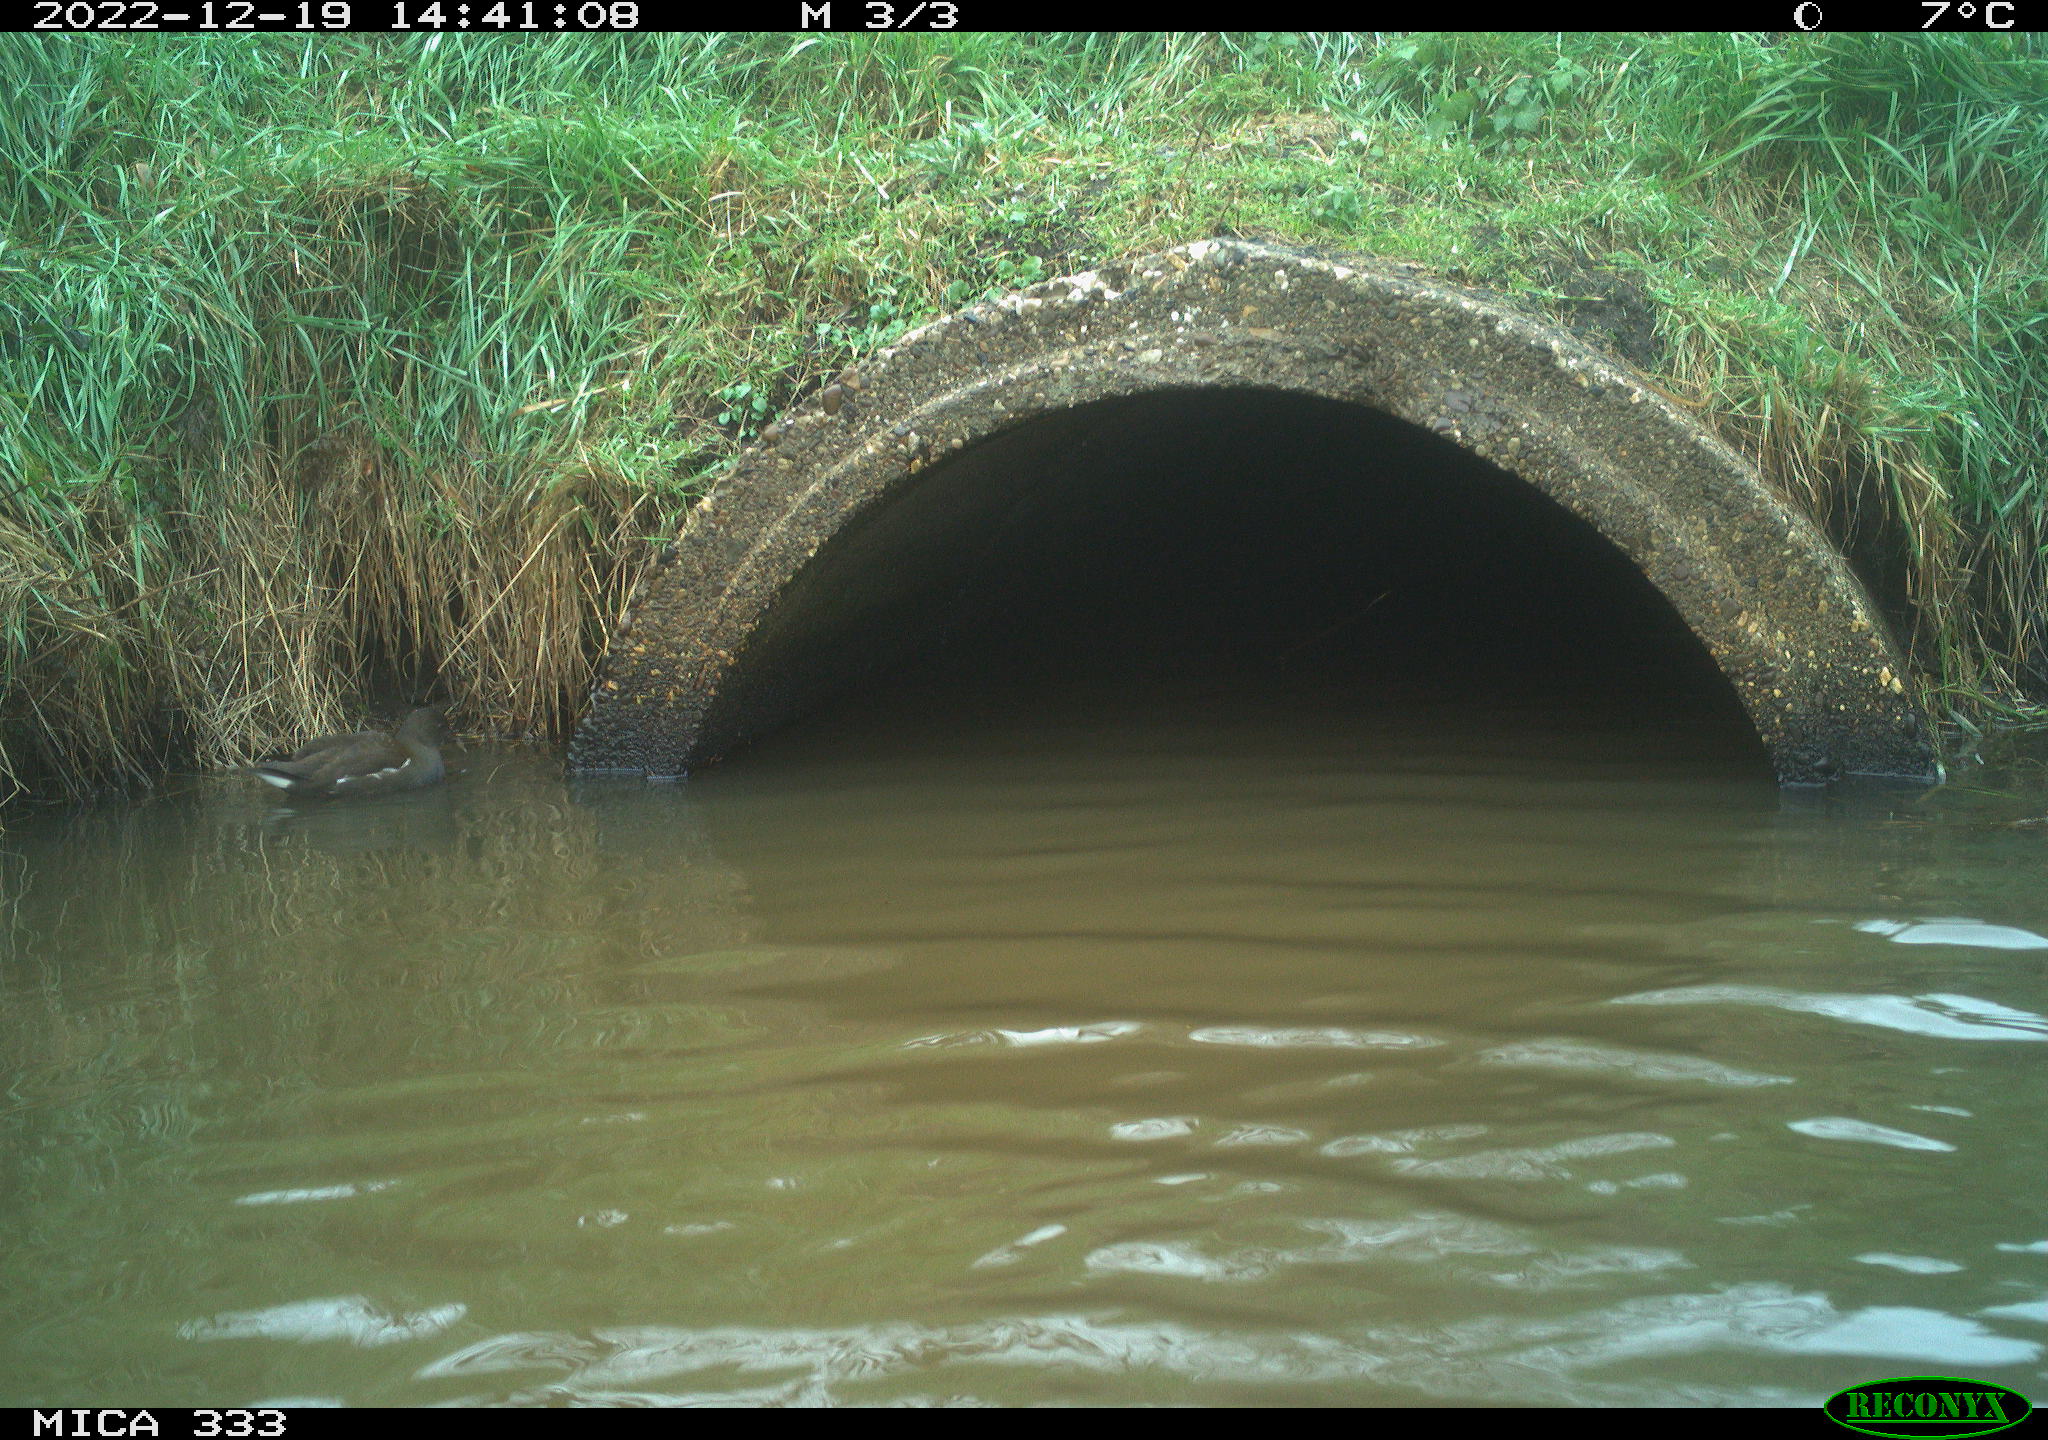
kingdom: Animalia
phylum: Chordata
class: Aves
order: Gruiformes
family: Rallidae
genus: Gallinula
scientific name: Gallinula chloropus
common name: Common moorhen
